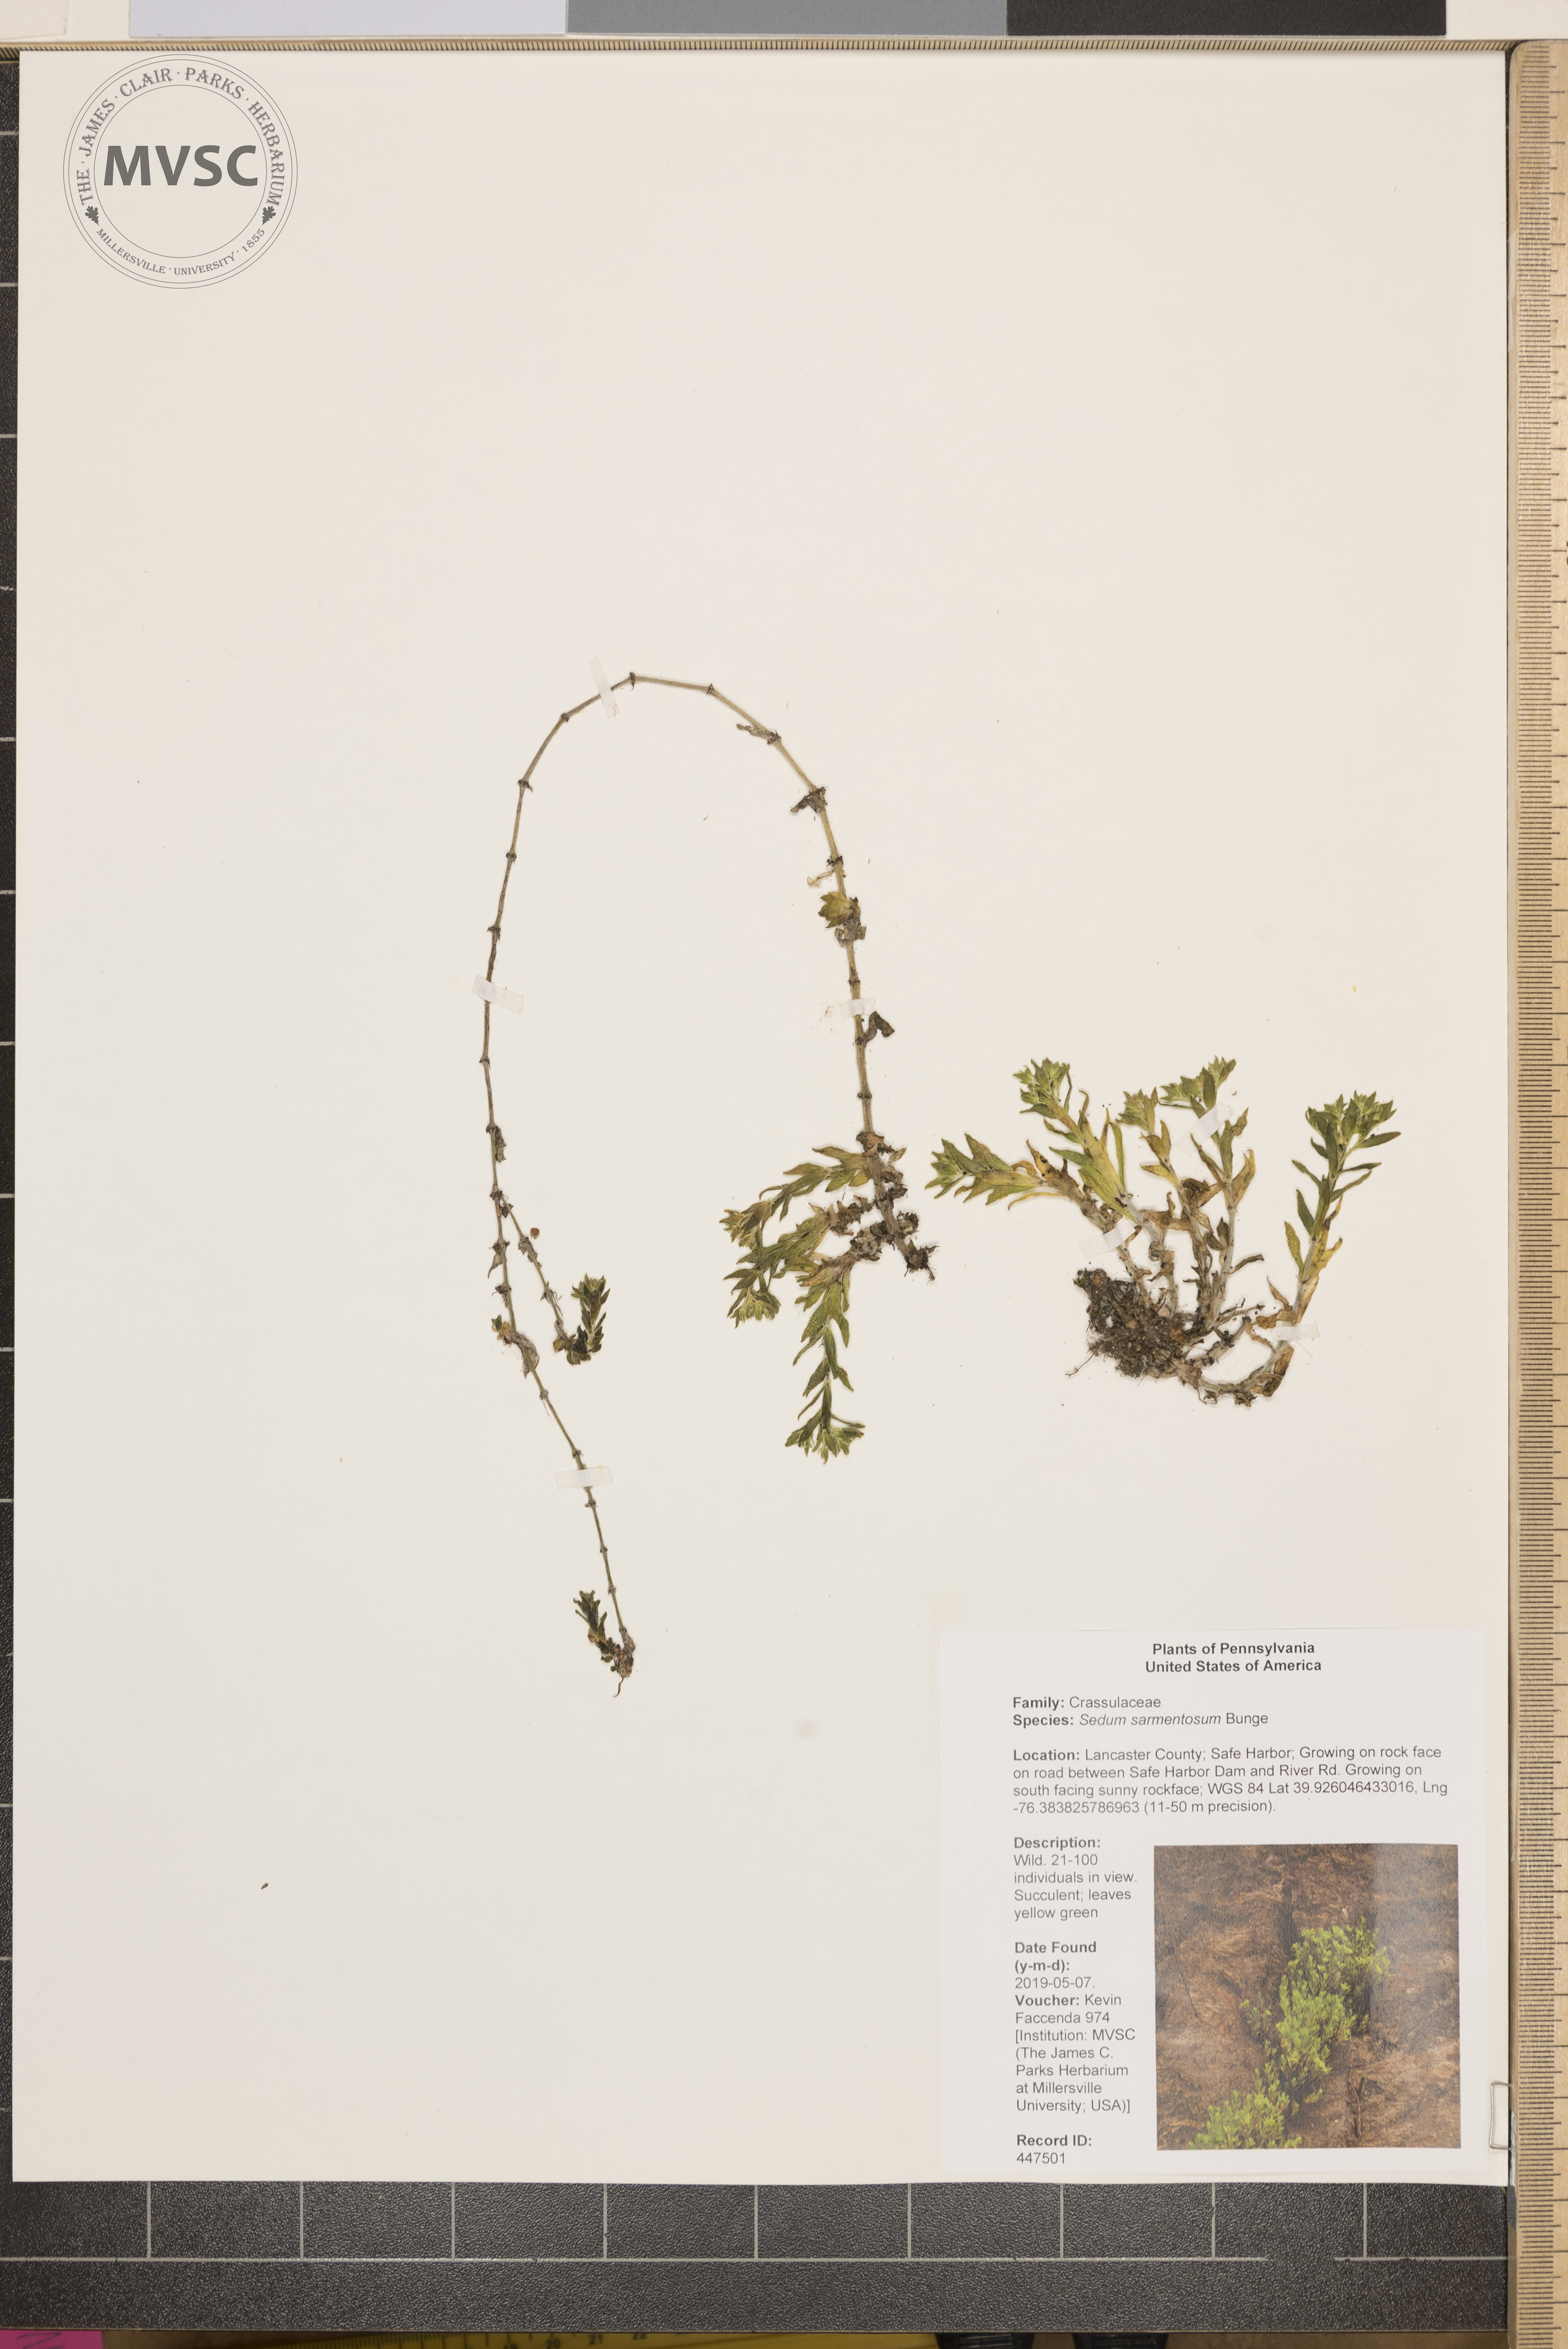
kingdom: Plantae
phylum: Tracheophyta
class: Magnoliopsida
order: Saxifragales
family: Crassulaceae
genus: Sedum
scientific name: Sedum sarmentosum
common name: Stringy stonecrop
